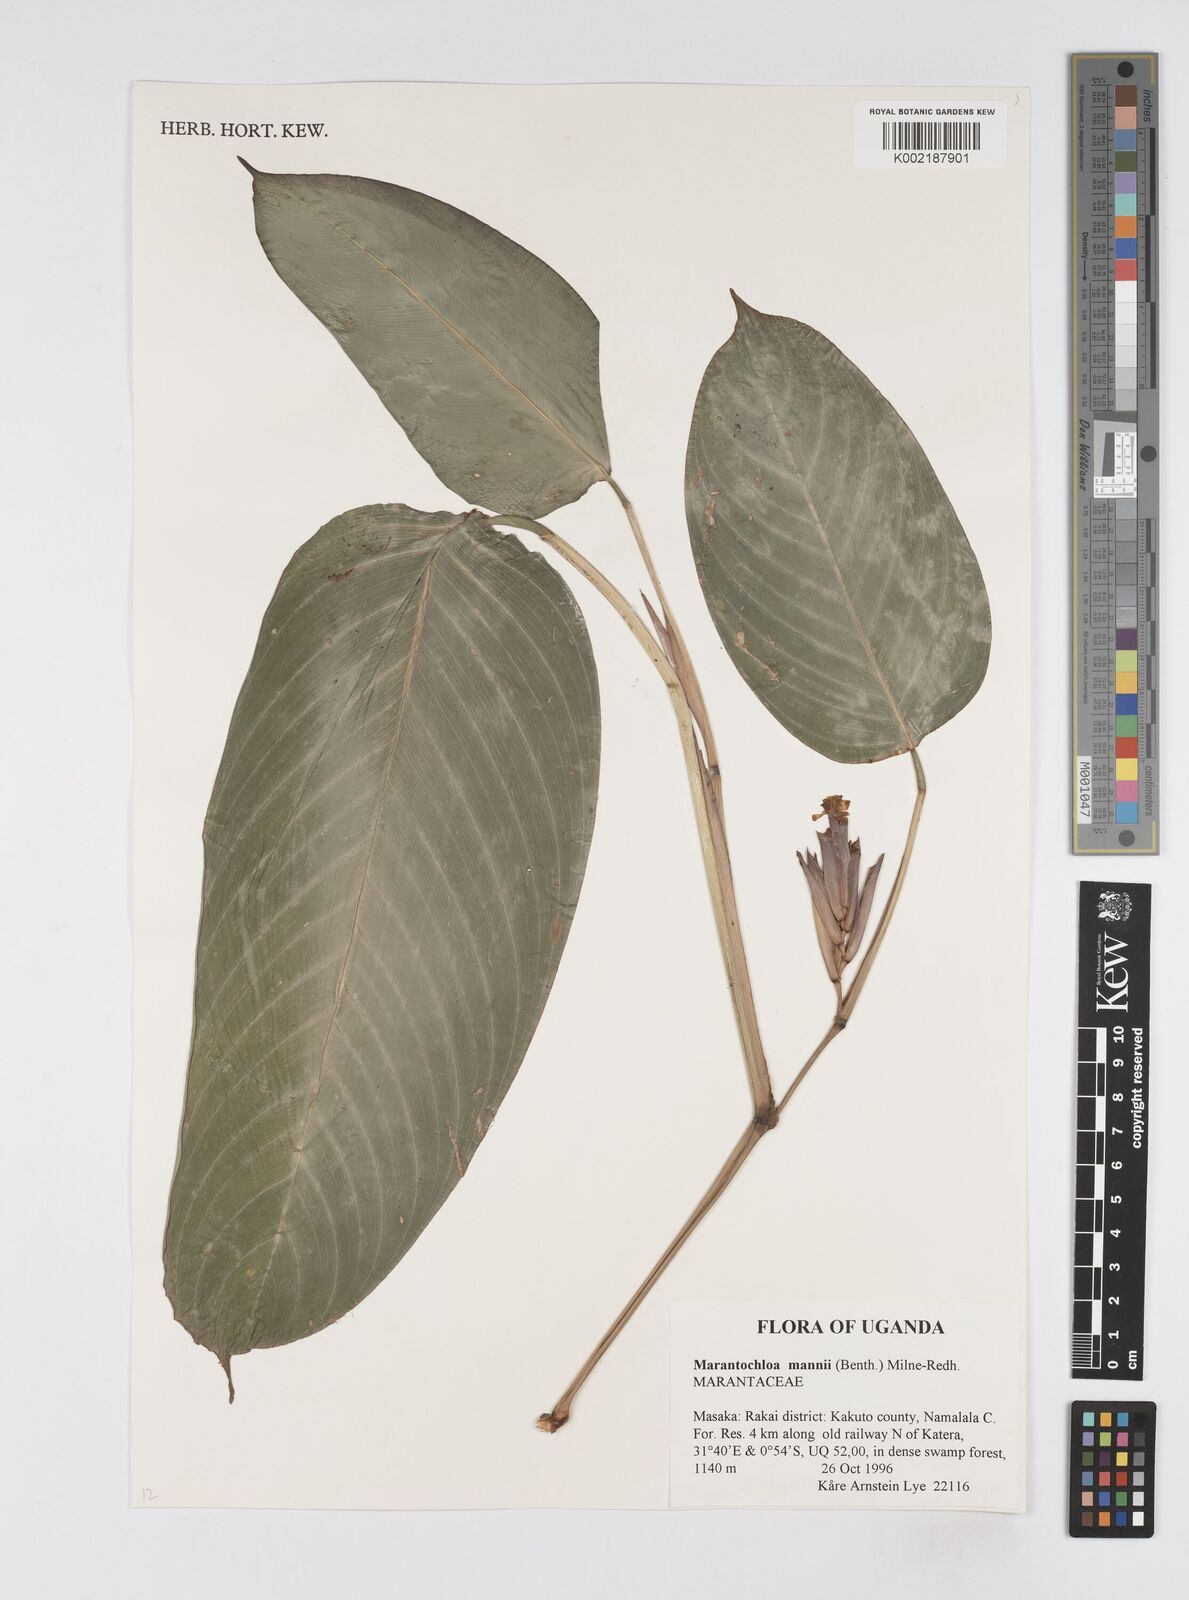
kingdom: Plantae
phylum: Tracheophyta
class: Liliopsida
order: Zingiberales
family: Marantaceae
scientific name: Marantaceae
